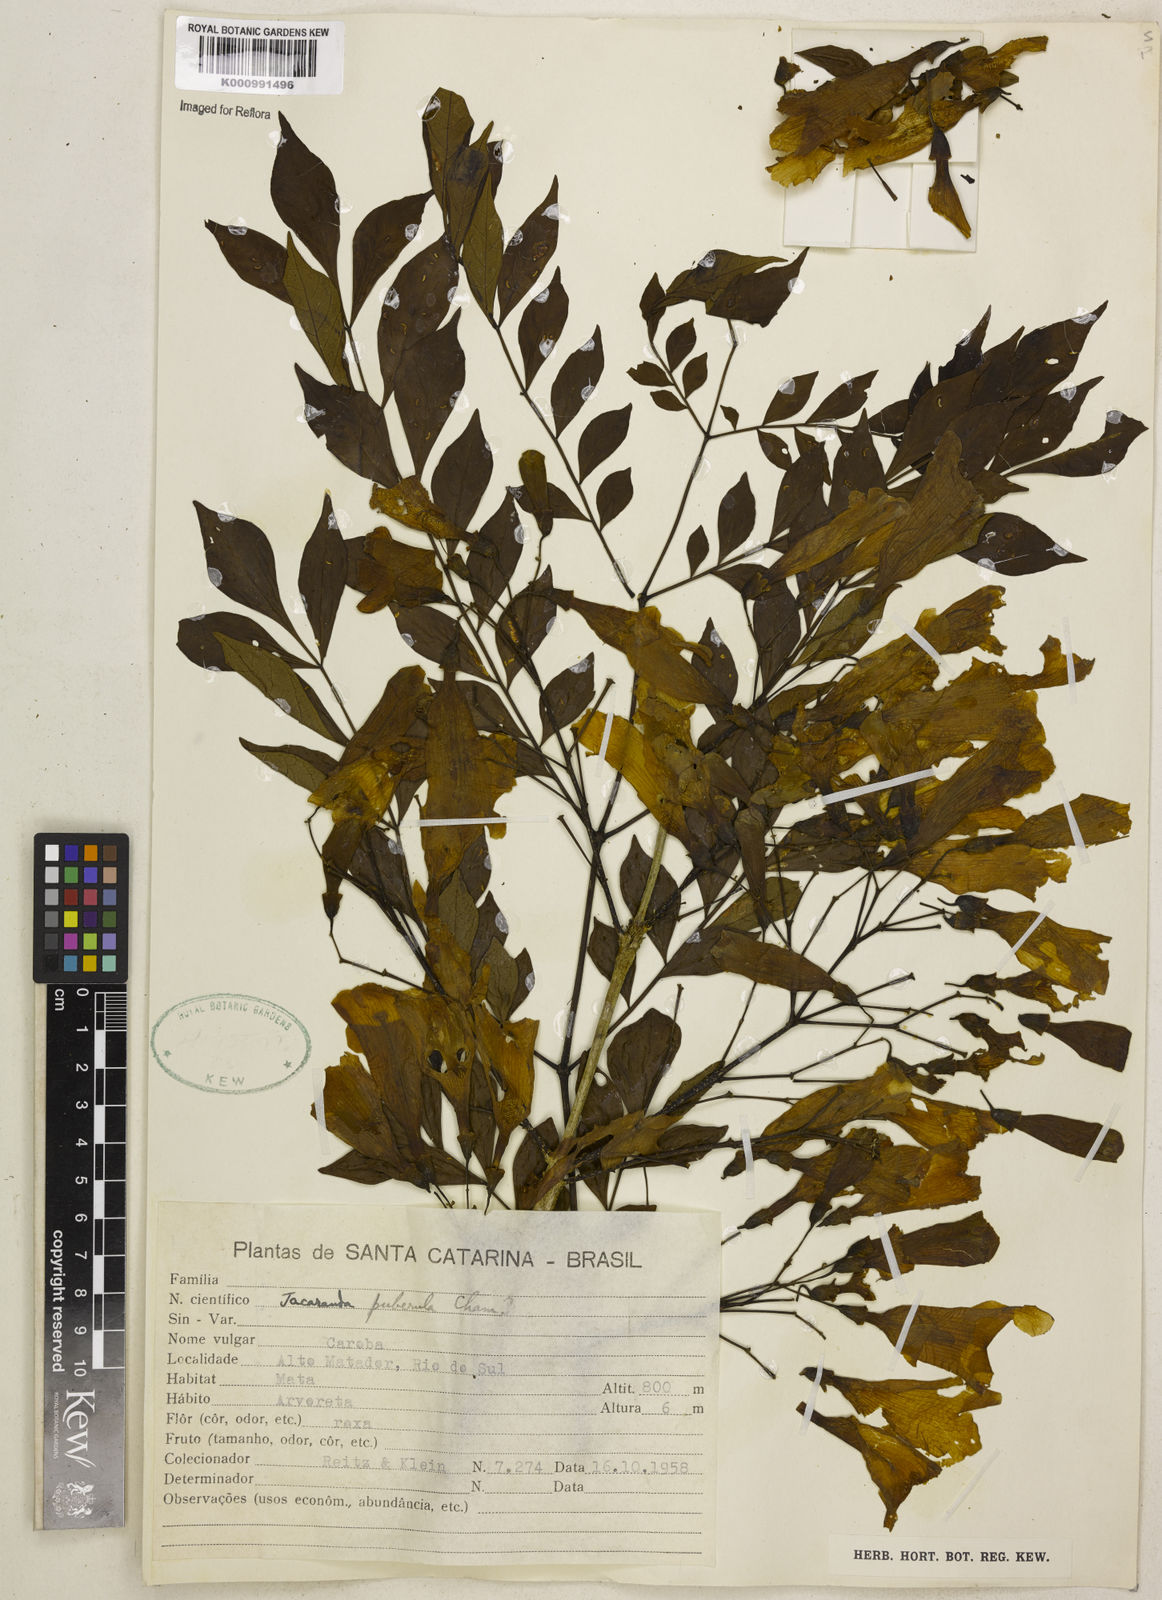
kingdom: Plantae
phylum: Tracheophyta
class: Magnoliopsida
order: Lamiales
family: Bignoniaceae
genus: Jacaranda
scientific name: Jacaranda puberula
